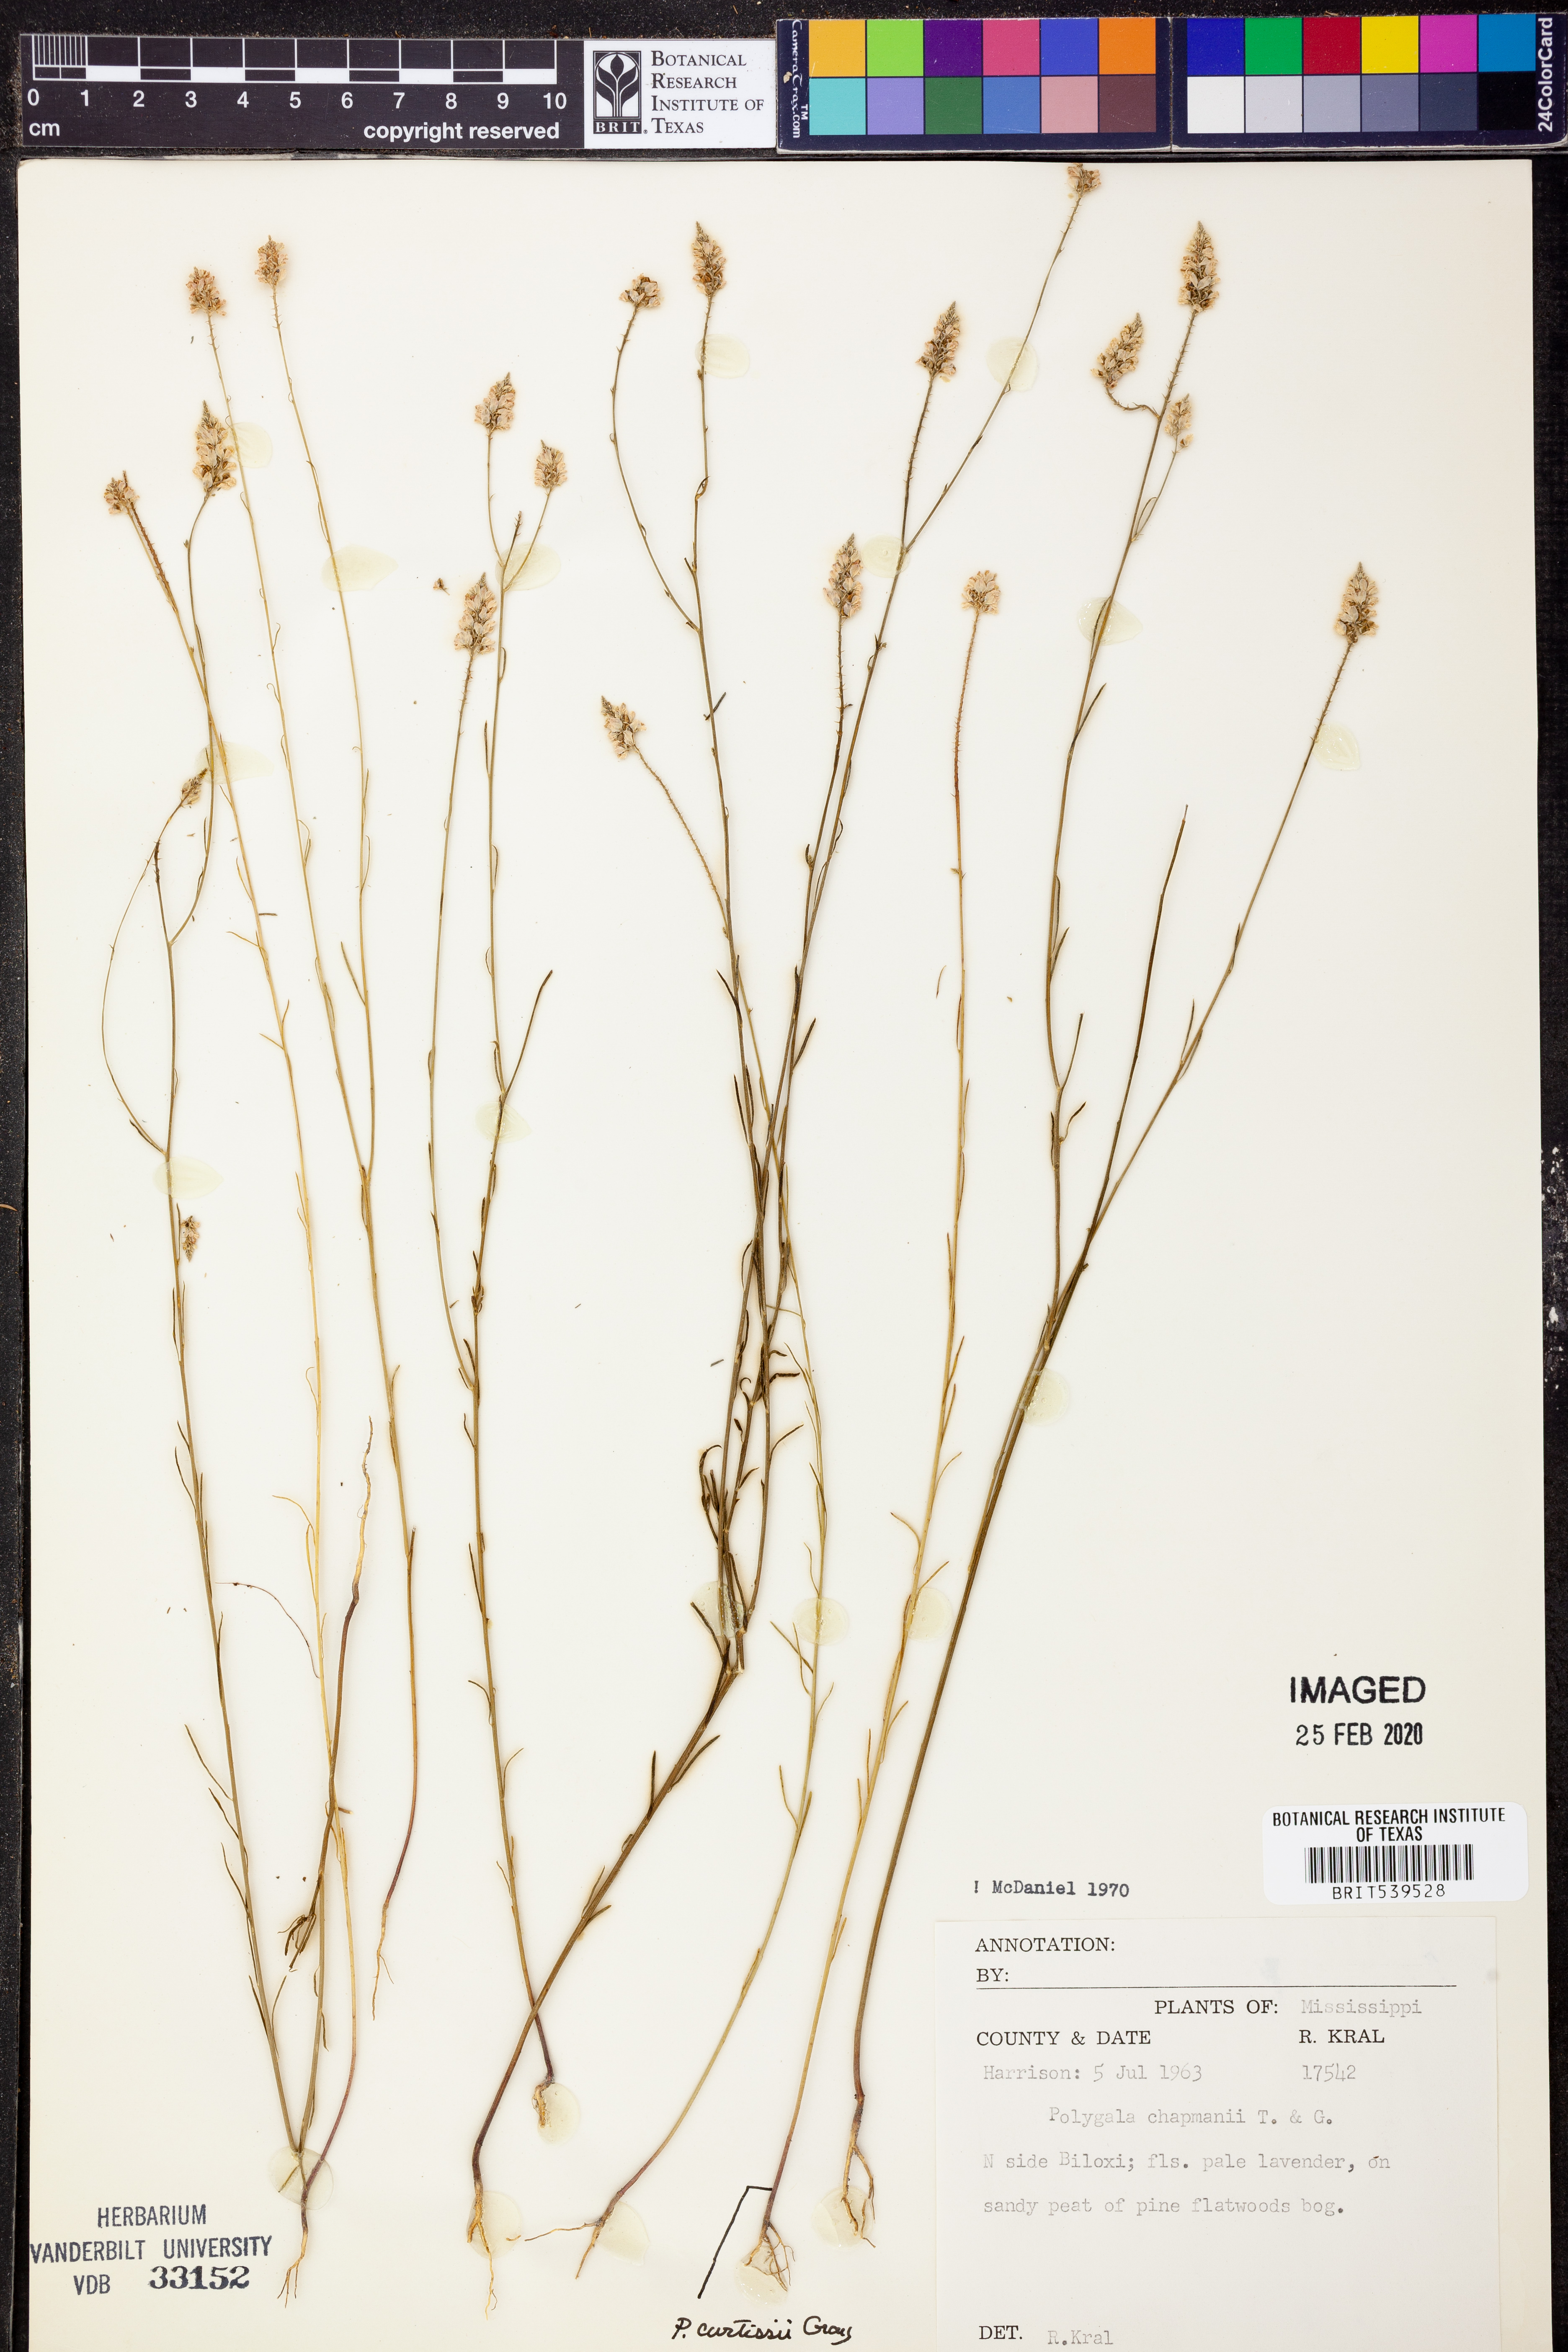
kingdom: Plantae
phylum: Tracheophyta
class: Magnoliopsida
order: Fabales
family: Polygalaceae
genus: Polygala
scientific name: Polygala chapmanii
